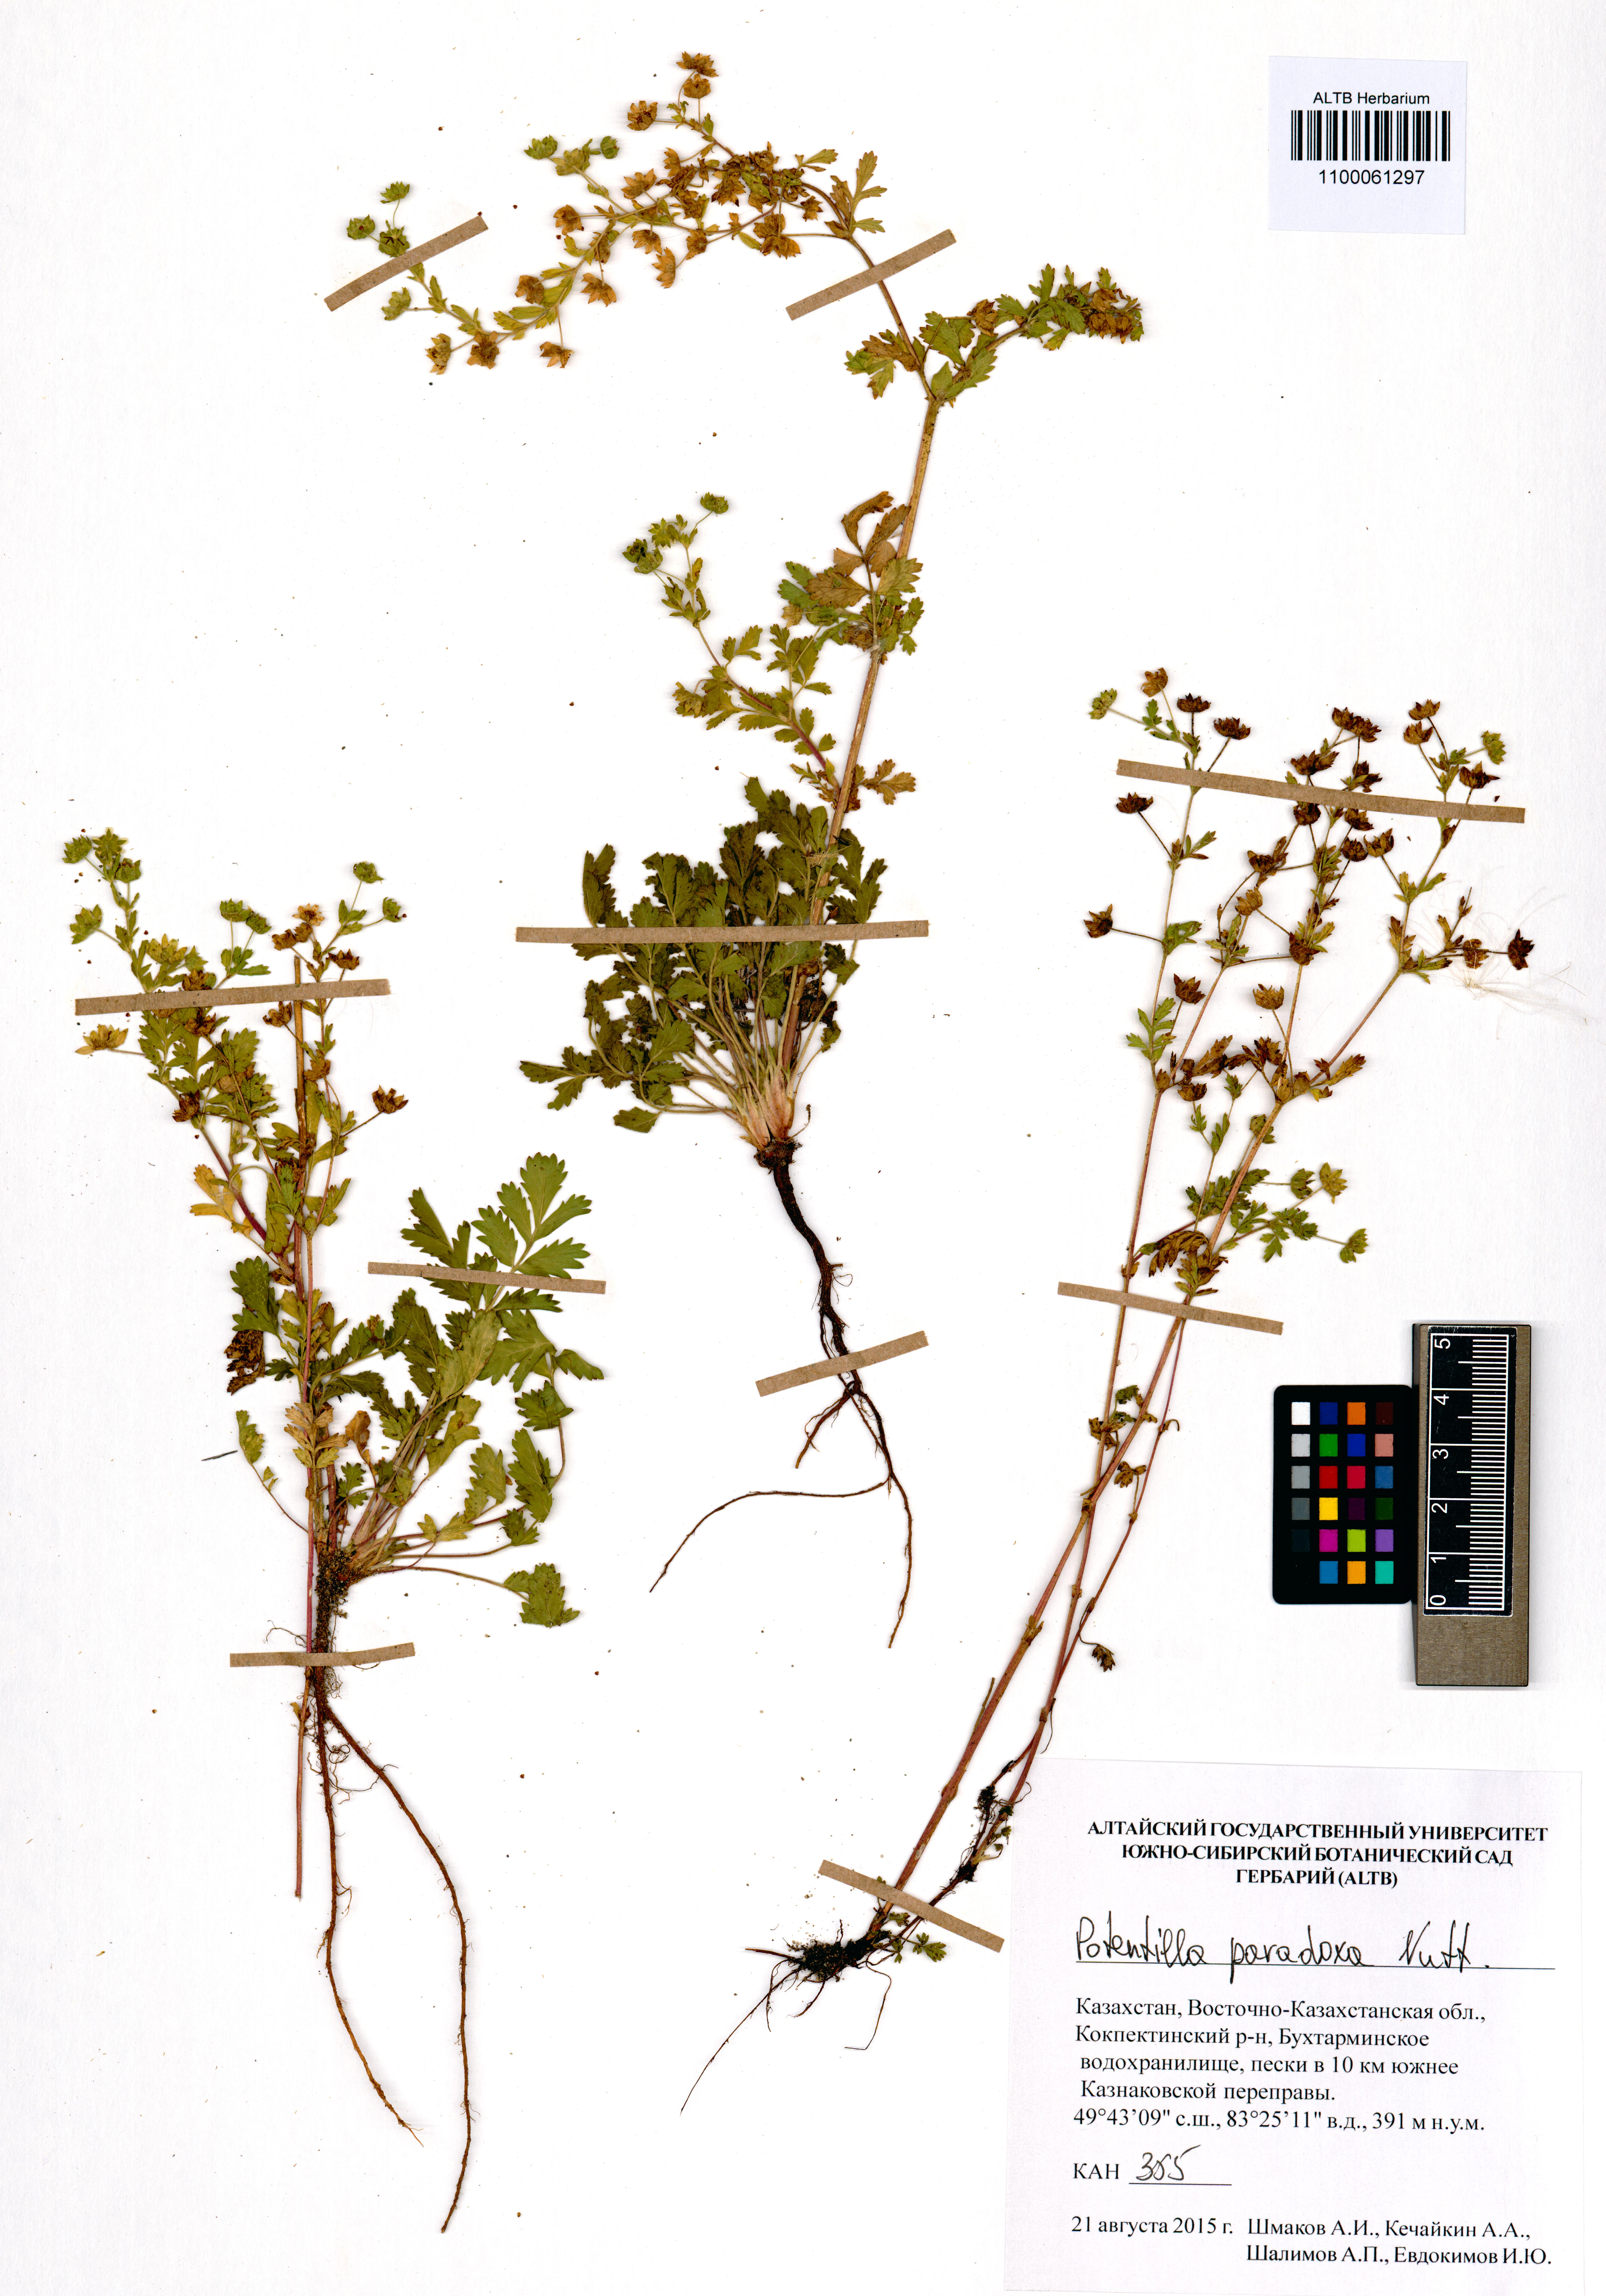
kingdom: Plantae
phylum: Tracheophyta
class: Magnoliopsida
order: Rosales
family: Rosaceae
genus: Potentilla
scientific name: Potentilla supina
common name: Prostrate cinquefoil
